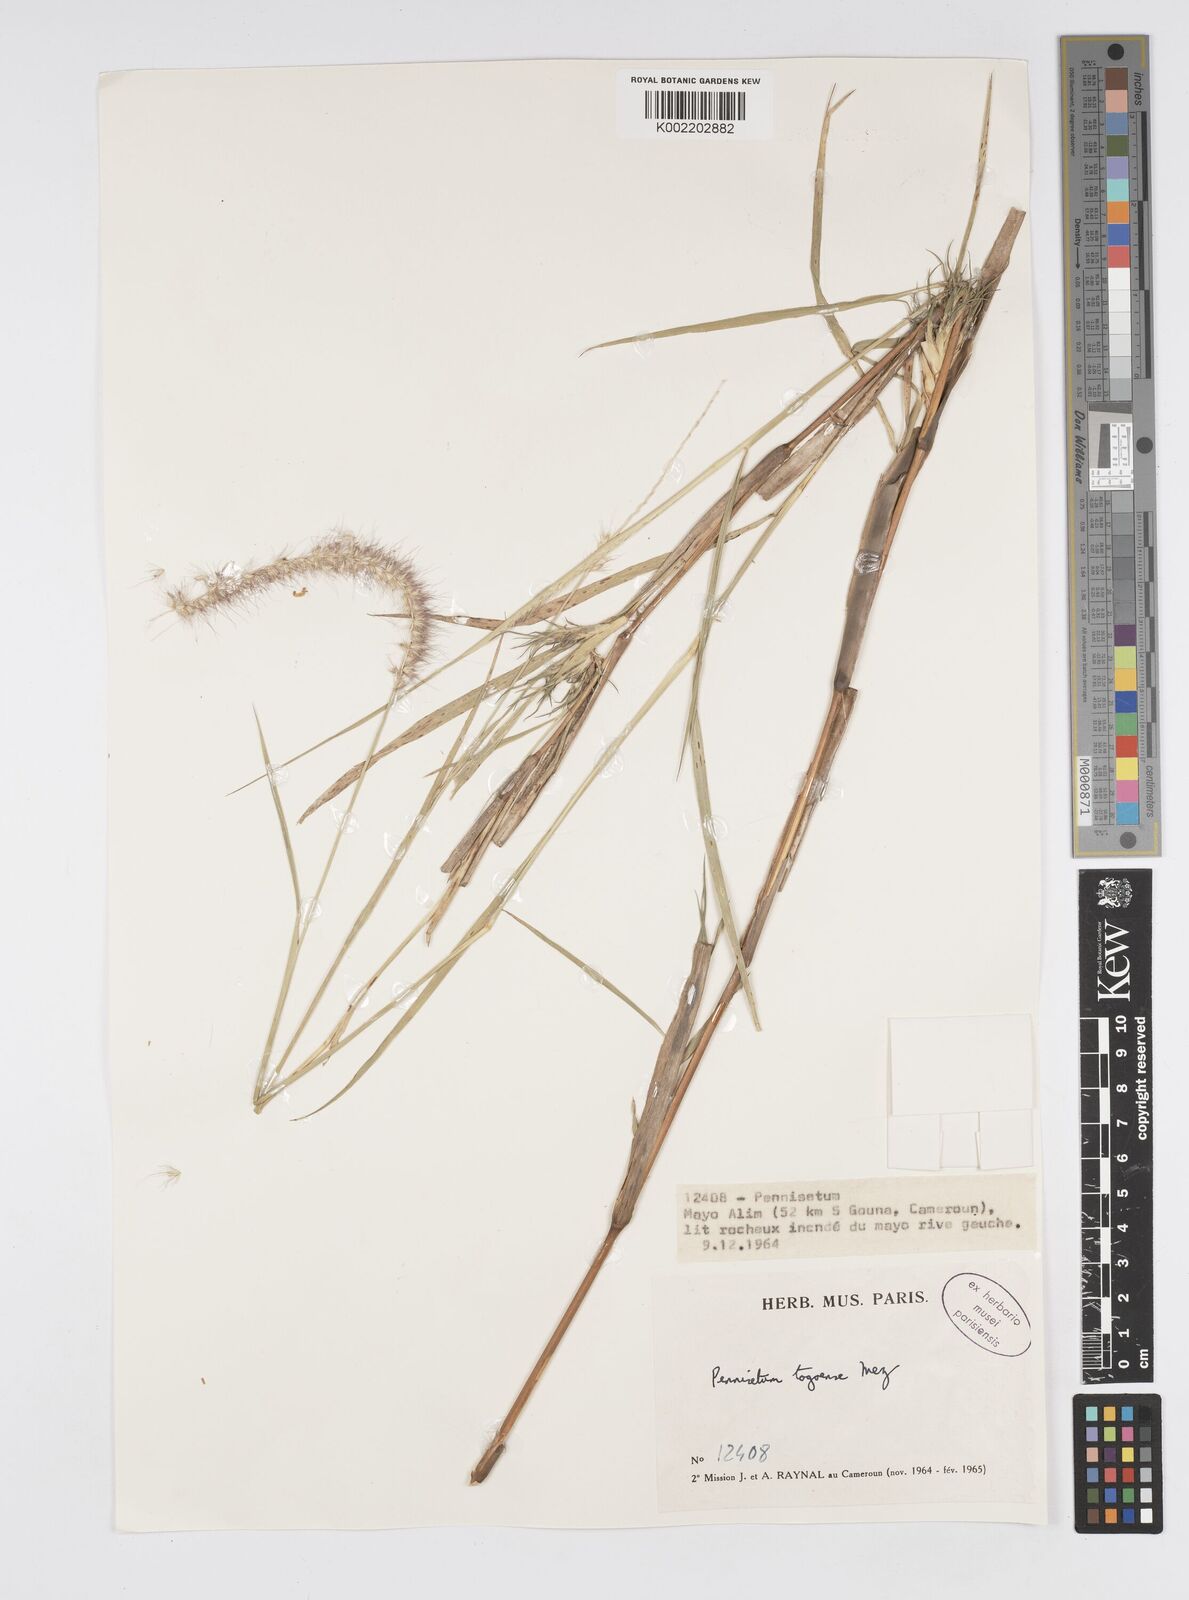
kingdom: Plantae
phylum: Tracheophyta
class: Liliopsida
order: Poales
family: Poaceae
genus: Cenchrus
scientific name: Cenchrus caudatus
